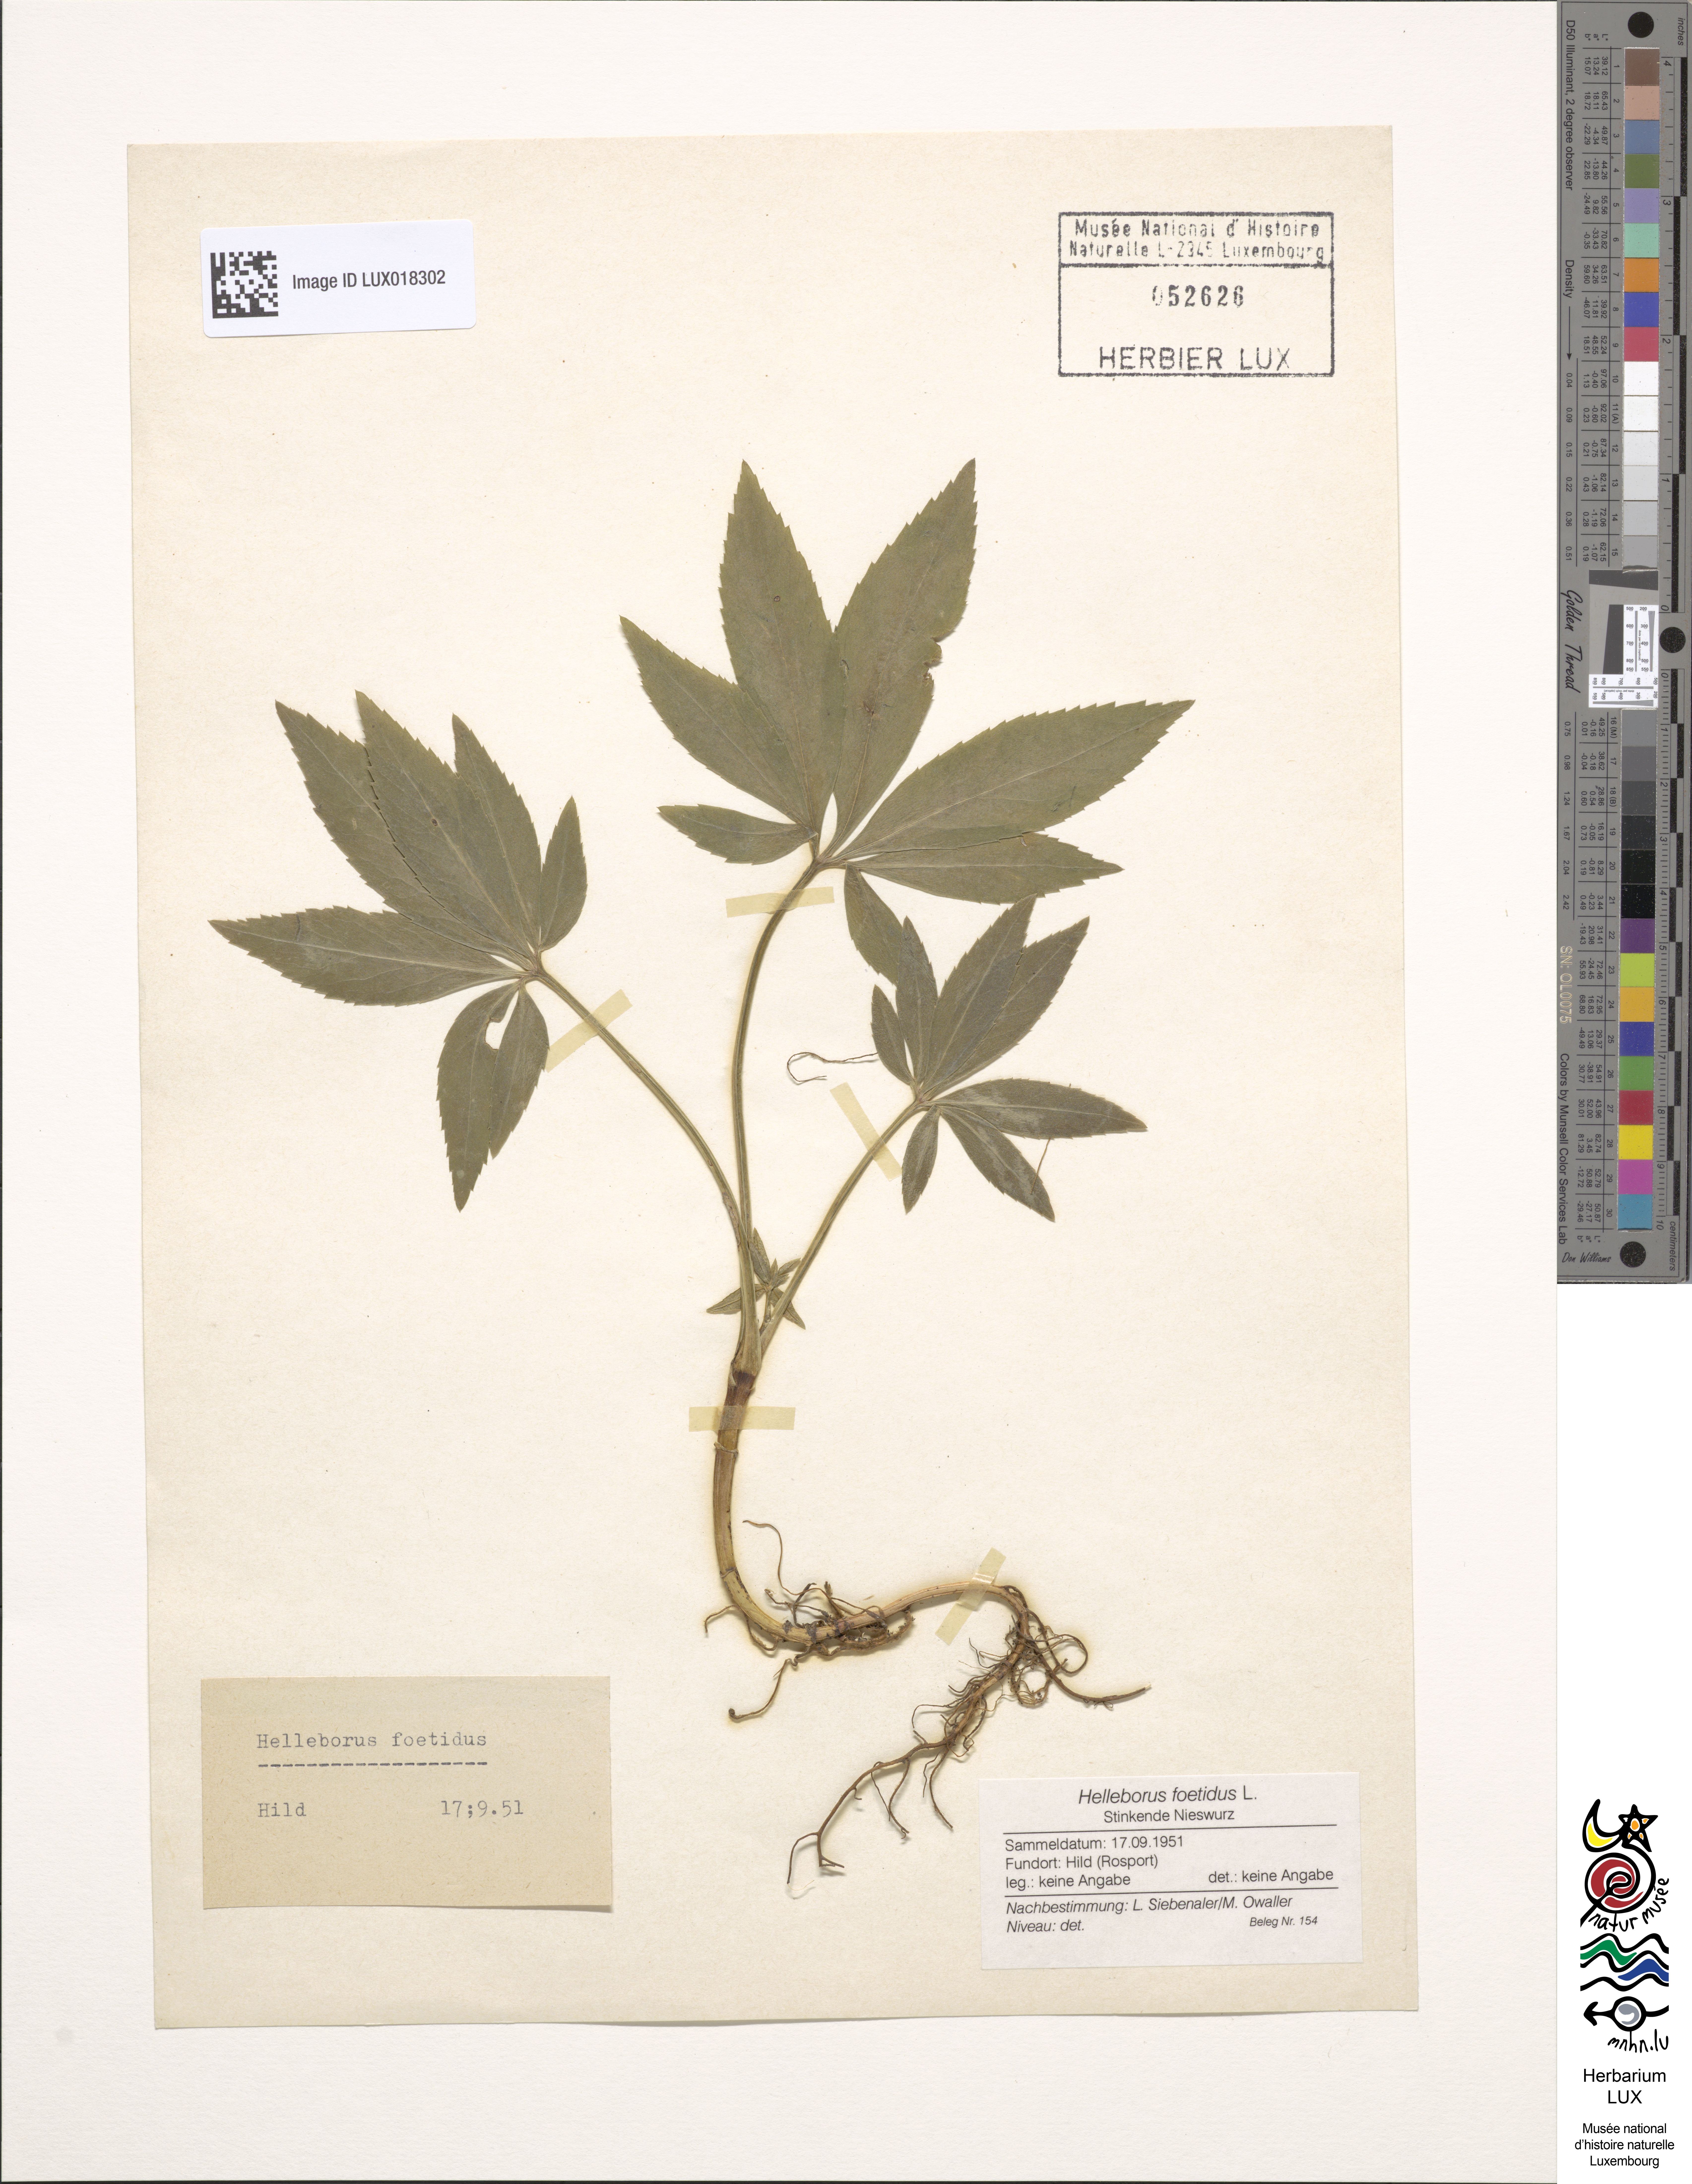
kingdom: Plantae
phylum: Tracheophyta
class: Magnoliopsida
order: Ranunculales
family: Ranunculaceae
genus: Helleborus
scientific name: Helleborus foetidus
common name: Stinking hellebore
